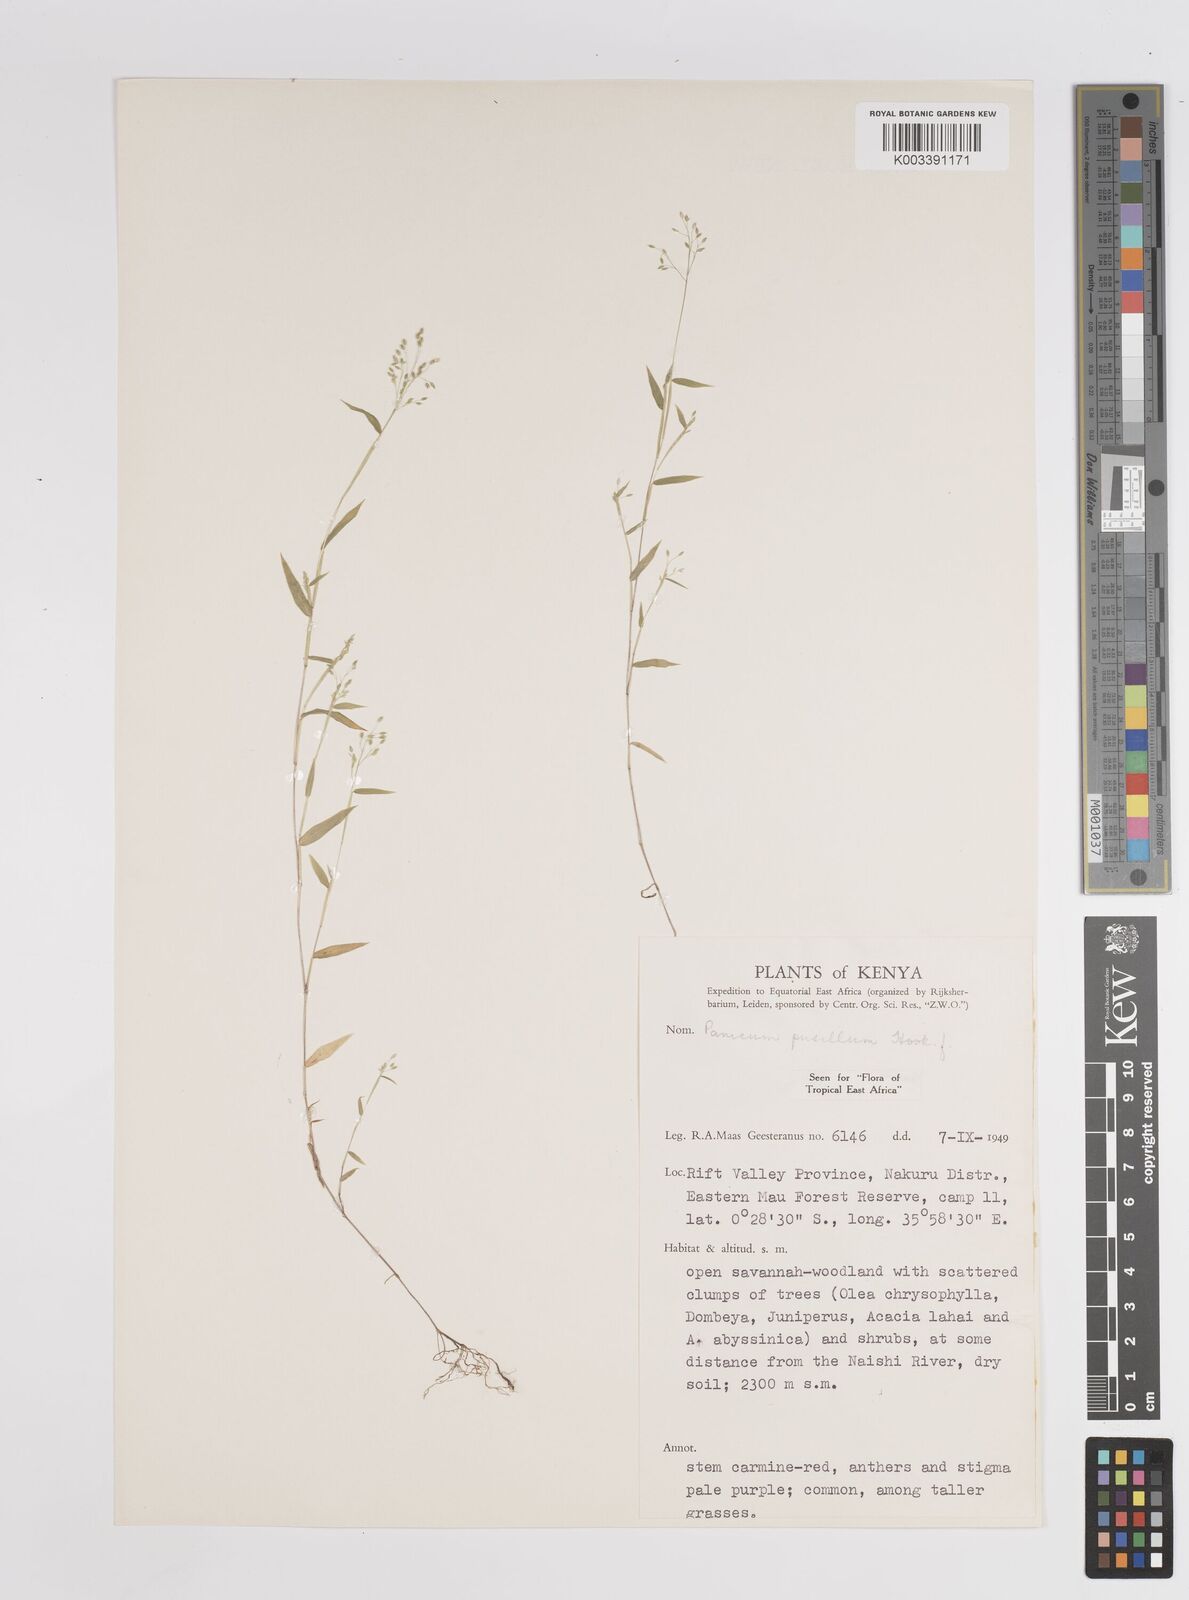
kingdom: Plantae
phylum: Tracheophyta
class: Liliopsida
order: Poales
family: Poaceae
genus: Panicum
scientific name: Panicum pusillum
